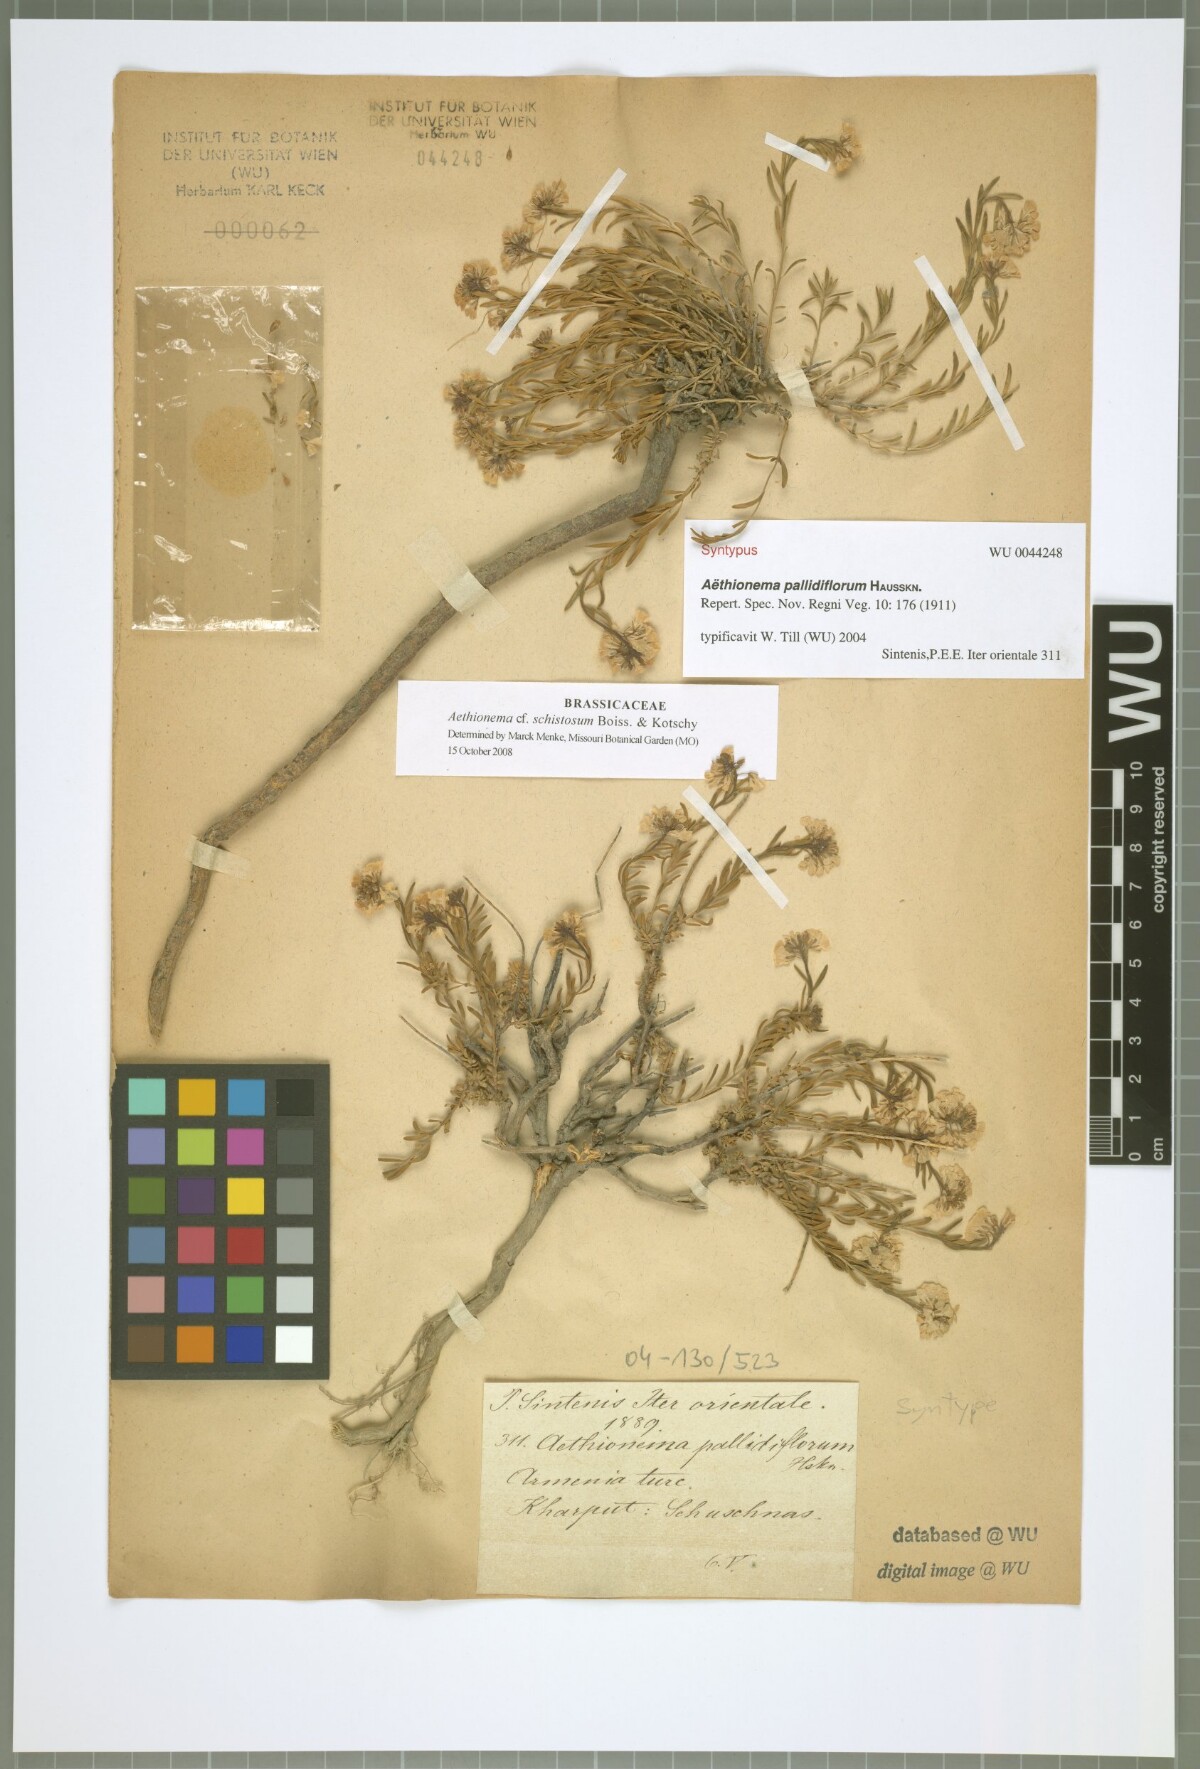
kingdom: Plantae
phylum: Tracheophyta
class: Magnoliopsida
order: Brassicales
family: Brassicaceae
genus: Aethionema
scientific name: Aethionema grandiflorum
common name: Persian stonecress
